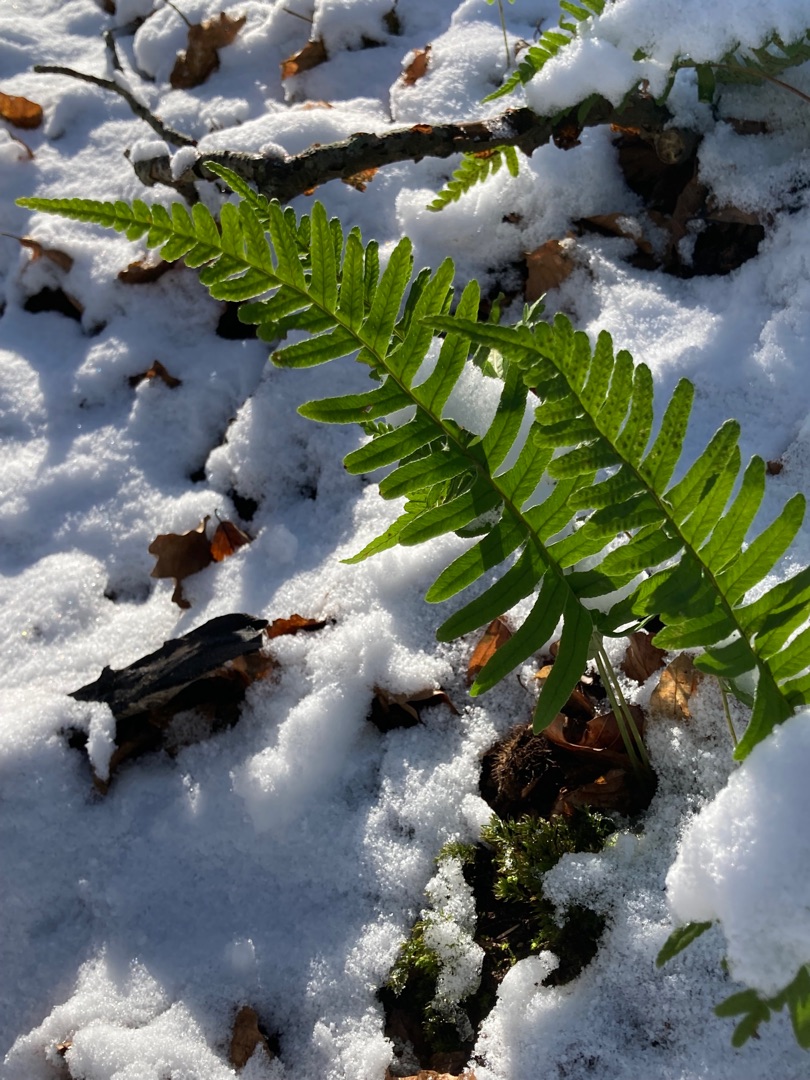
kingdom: Plantae
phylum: Tracheophyta
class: Polypodiopsida
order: Polypodiales
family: Polypodiaceae
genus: Polypodium
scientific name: Polypodium vulgare
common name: Almindelig engelsød
